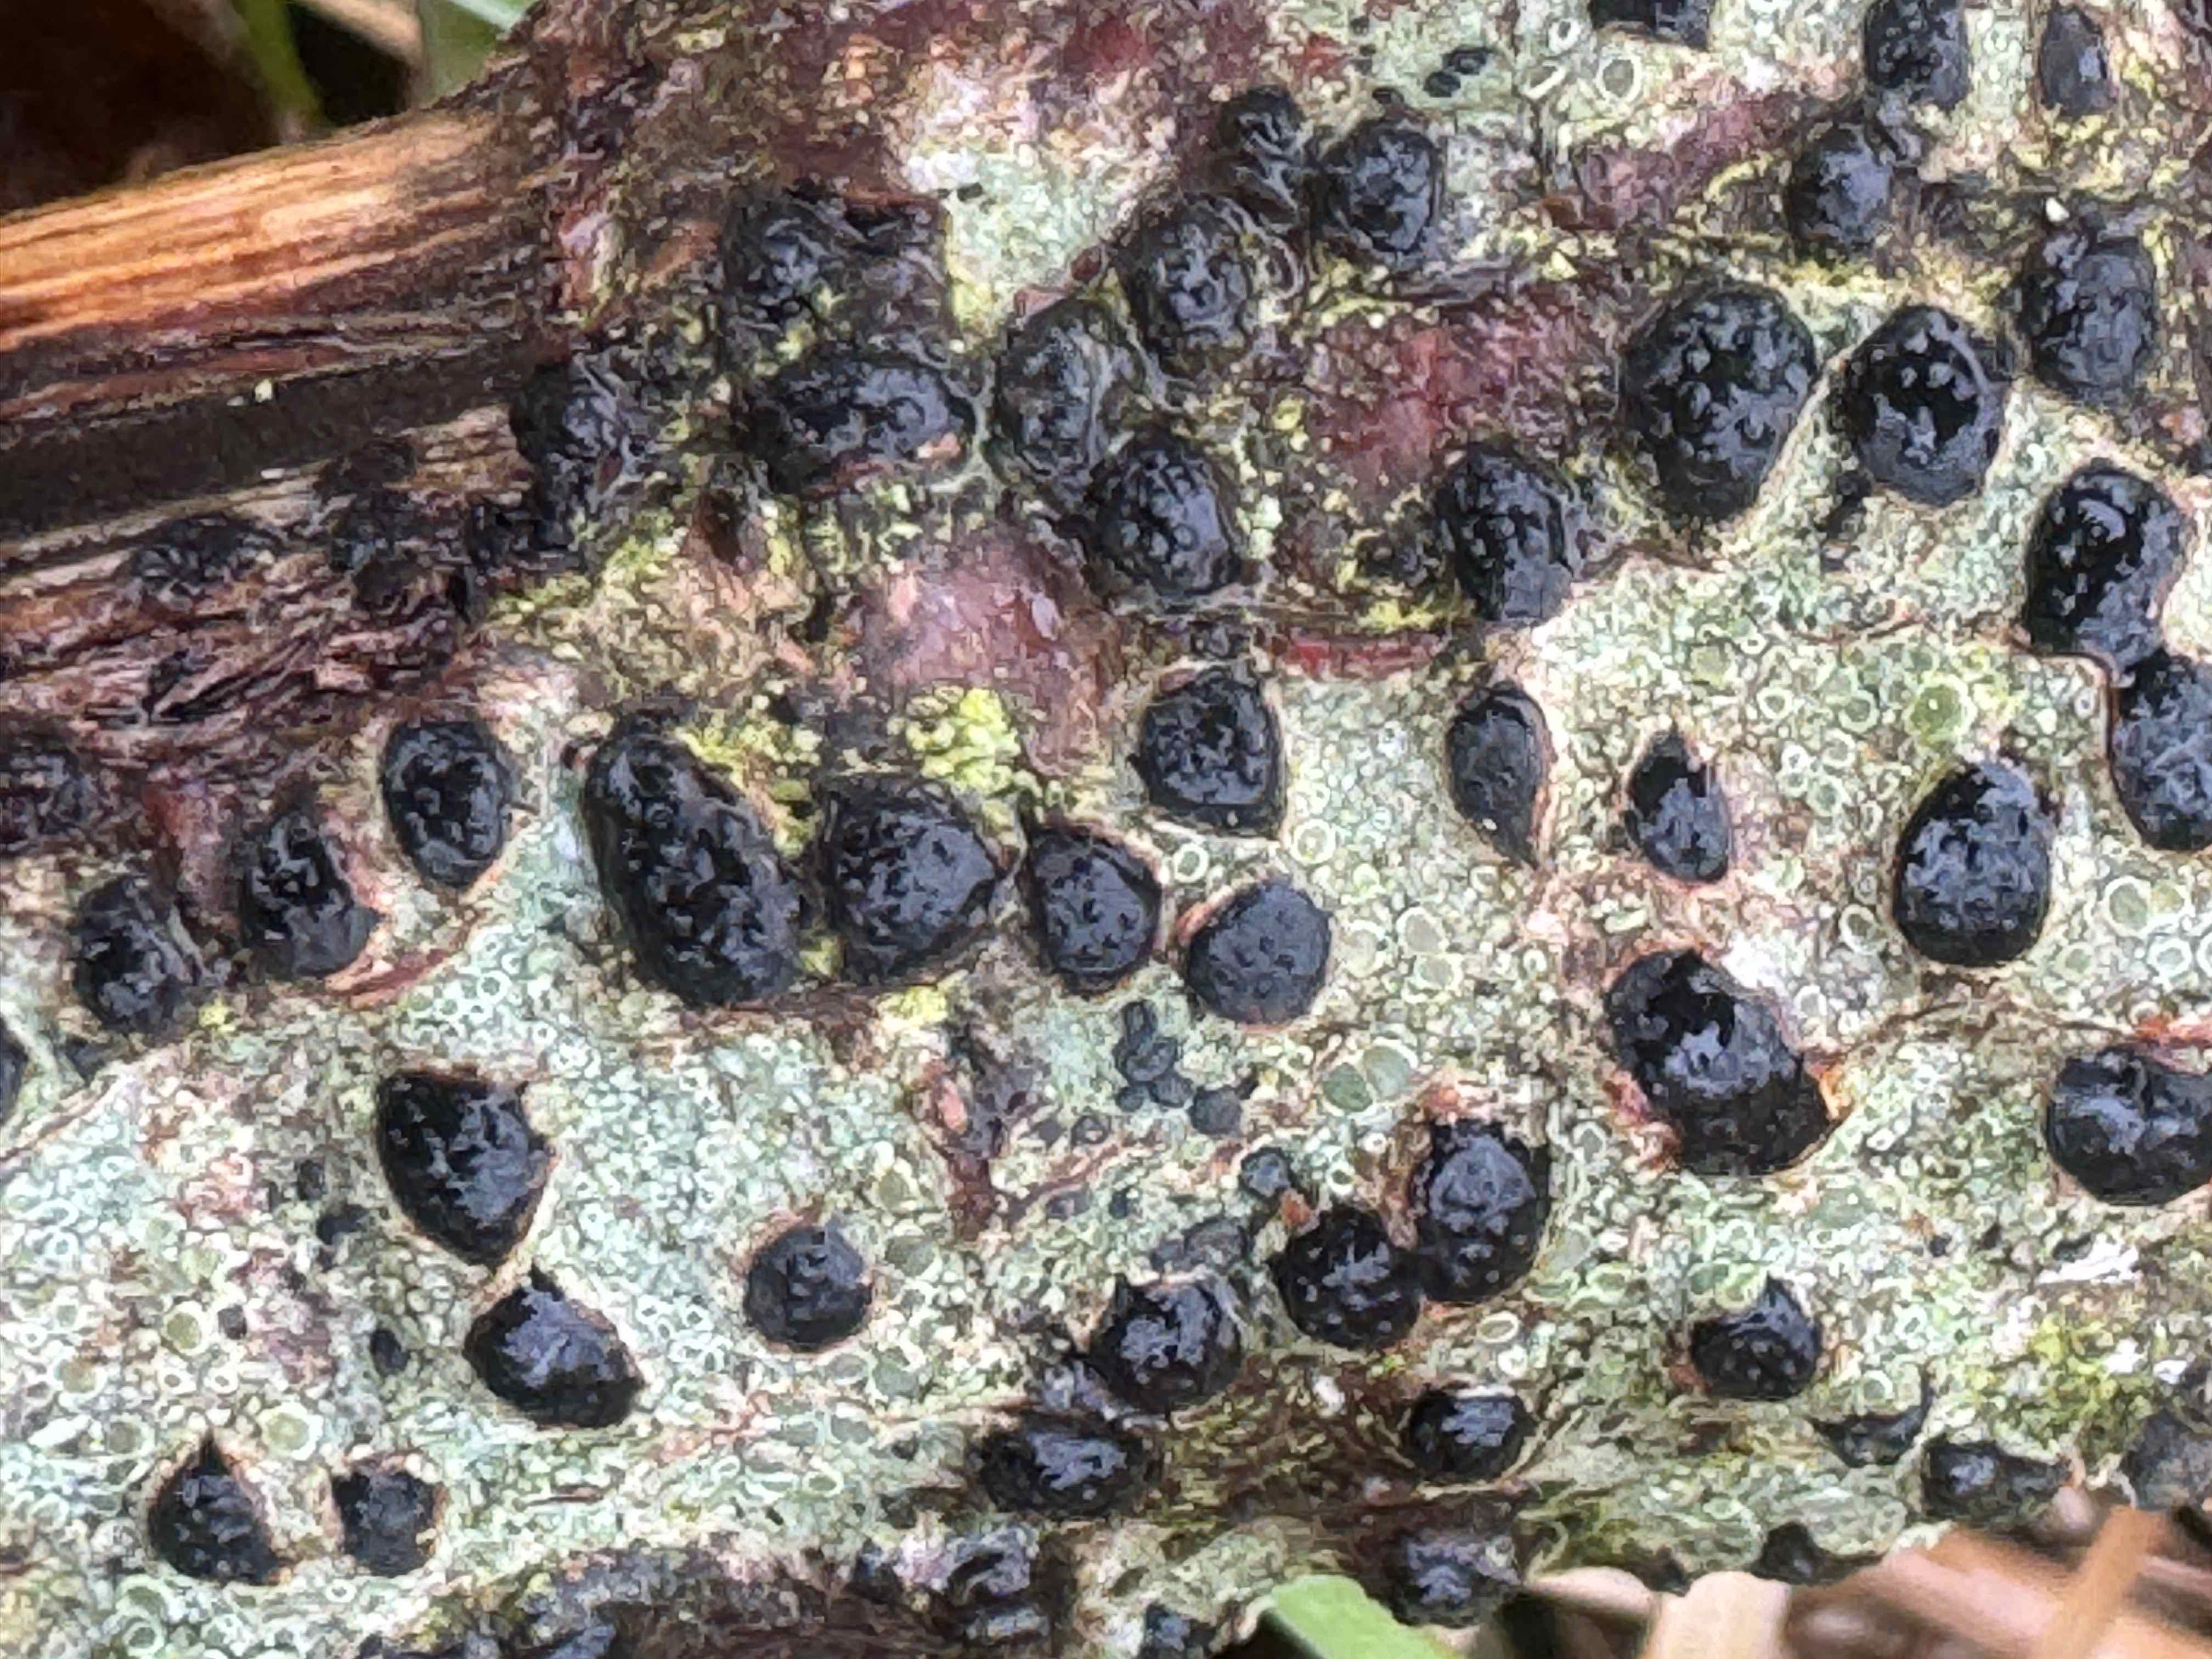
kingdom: Fungi
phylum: Ascomycota
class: Sordariomycetes
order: Xylariales
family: Diatrypaceae
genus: Diatrypella
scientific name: Diatrypella quercina
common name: ege-kulskorpe
